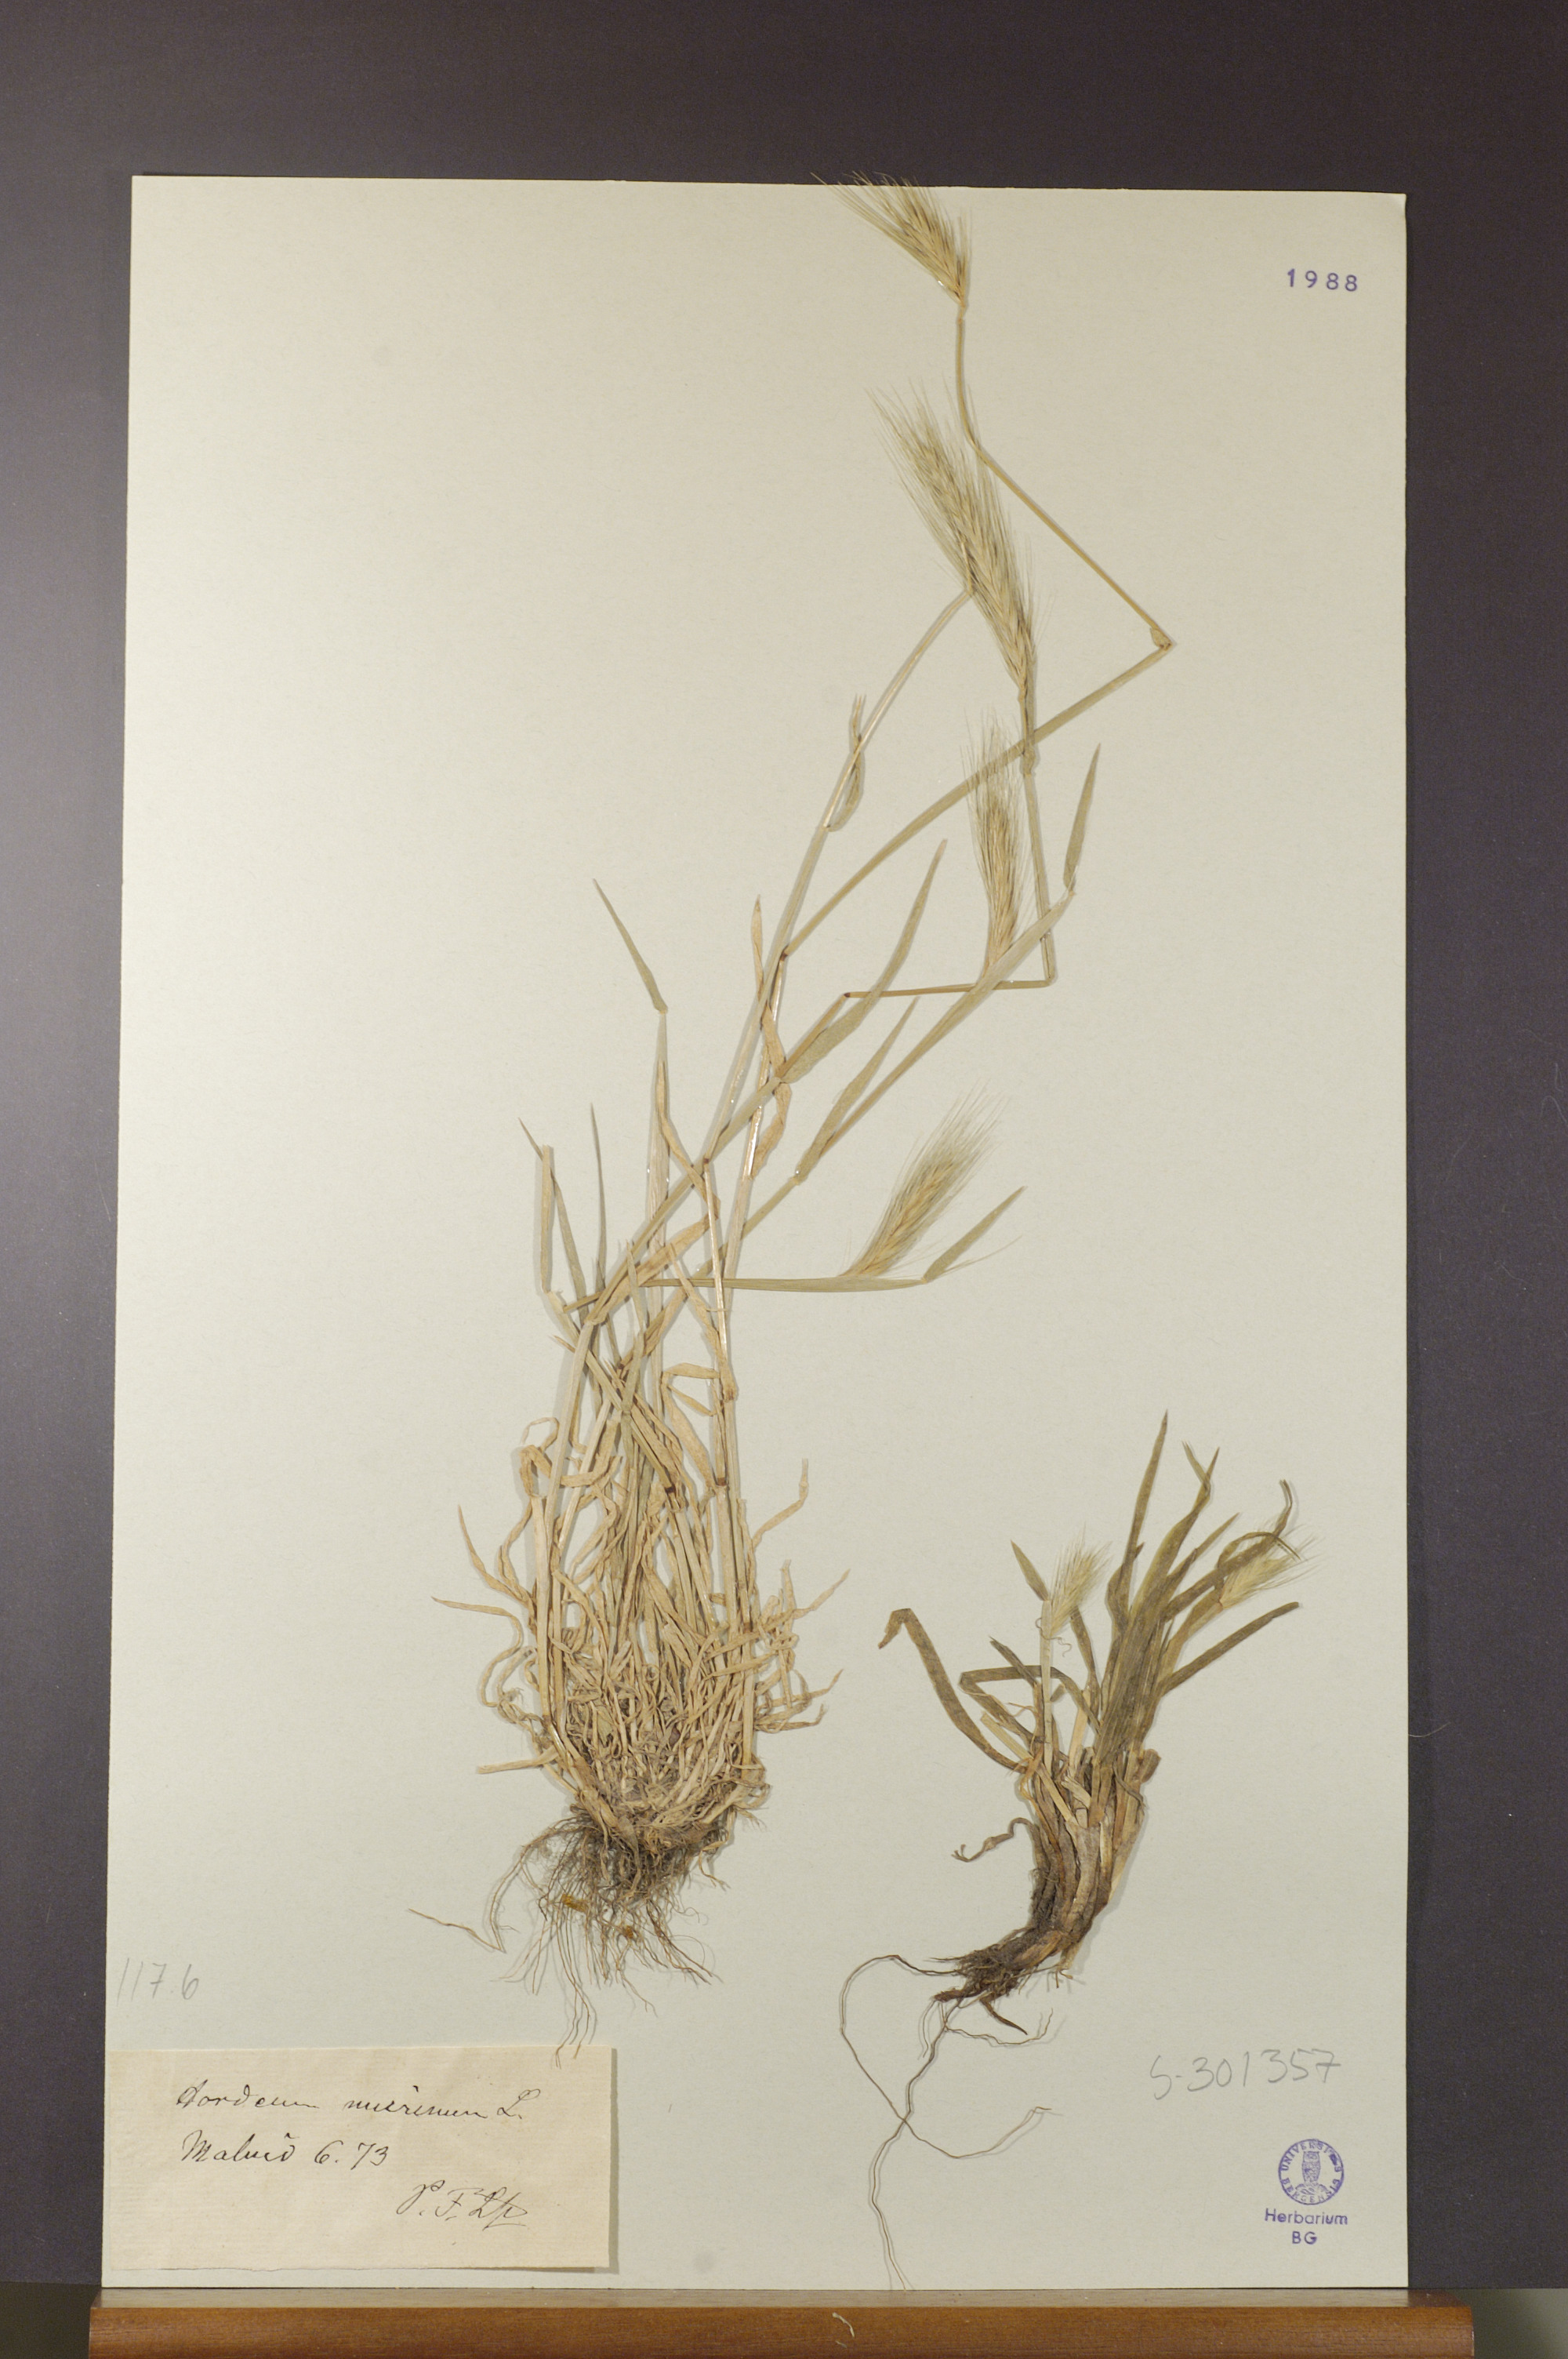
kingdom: Plantae
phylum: Tracheophyta
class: Liliopsida
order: Poales
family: Poaceae
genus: Hordeum
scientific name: Hordeum murinum
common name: Wall barley
